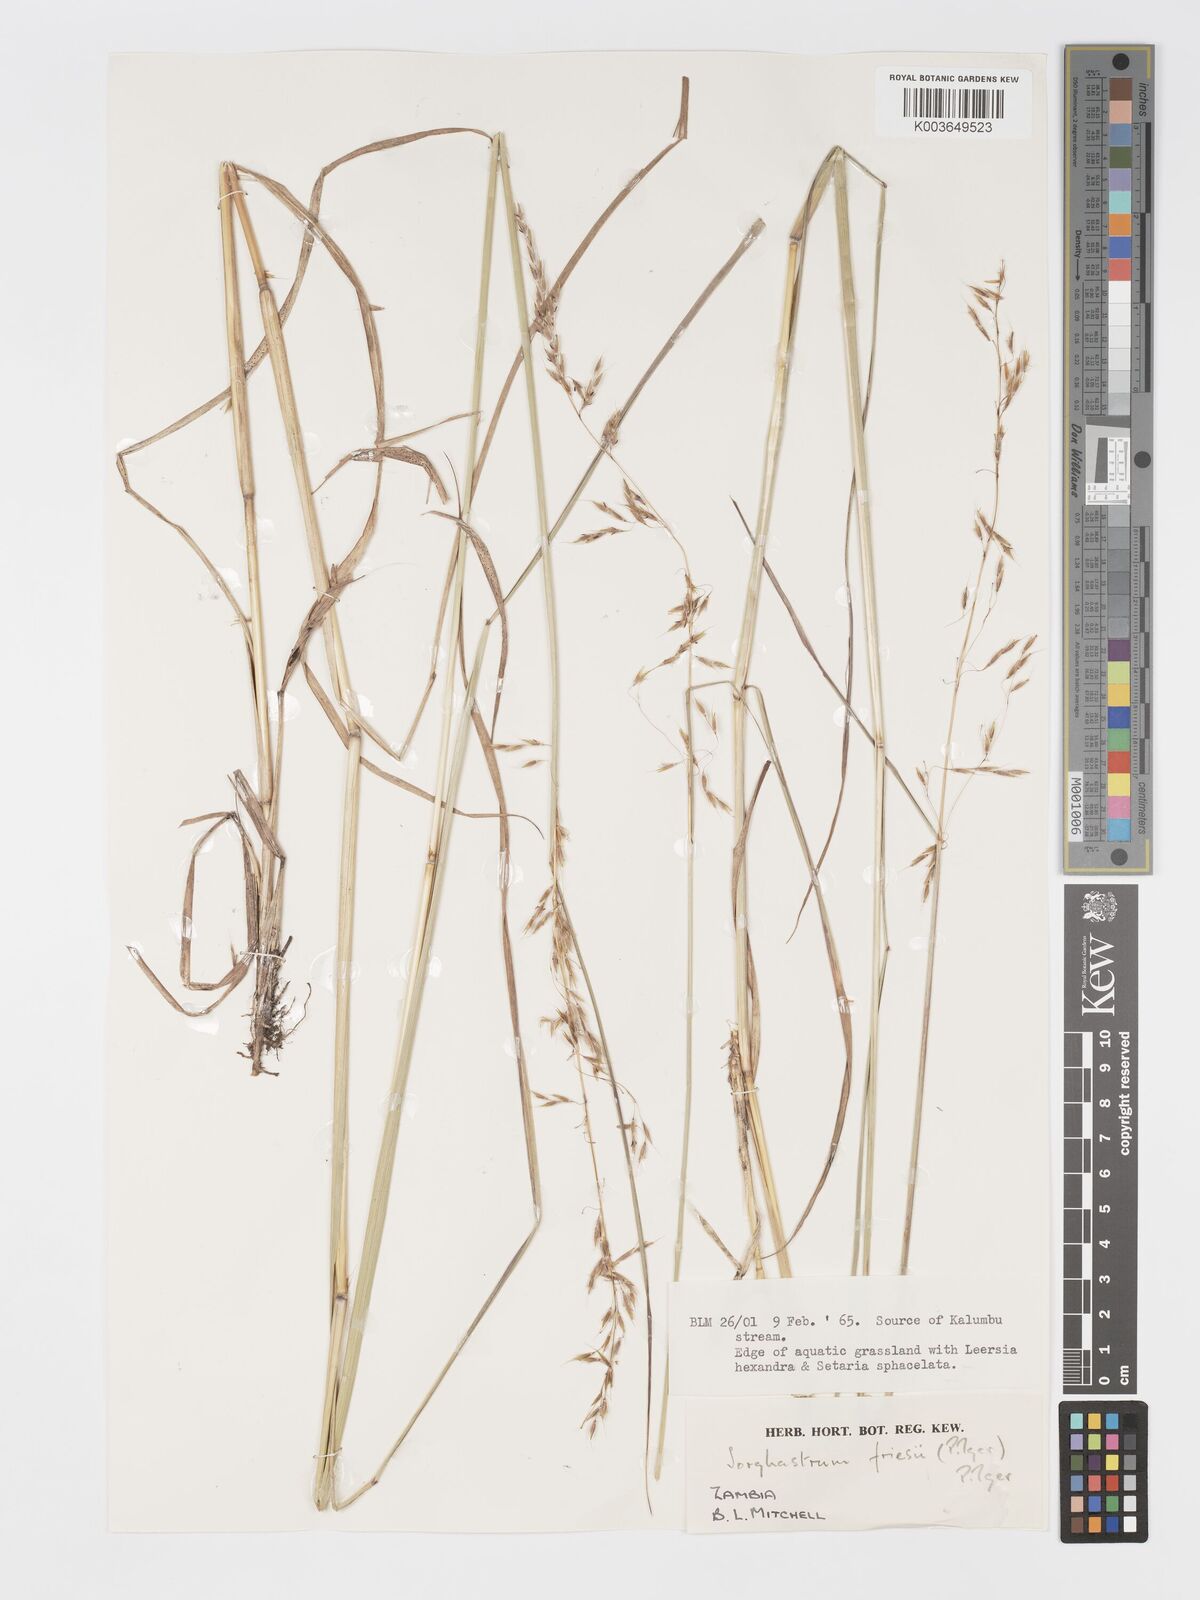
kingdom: Plantae
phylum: Tracheophyta
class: Liliopsida
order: Poales
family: Poaceae
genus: Sorghastrum
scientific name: Sorghastrum nudipes
